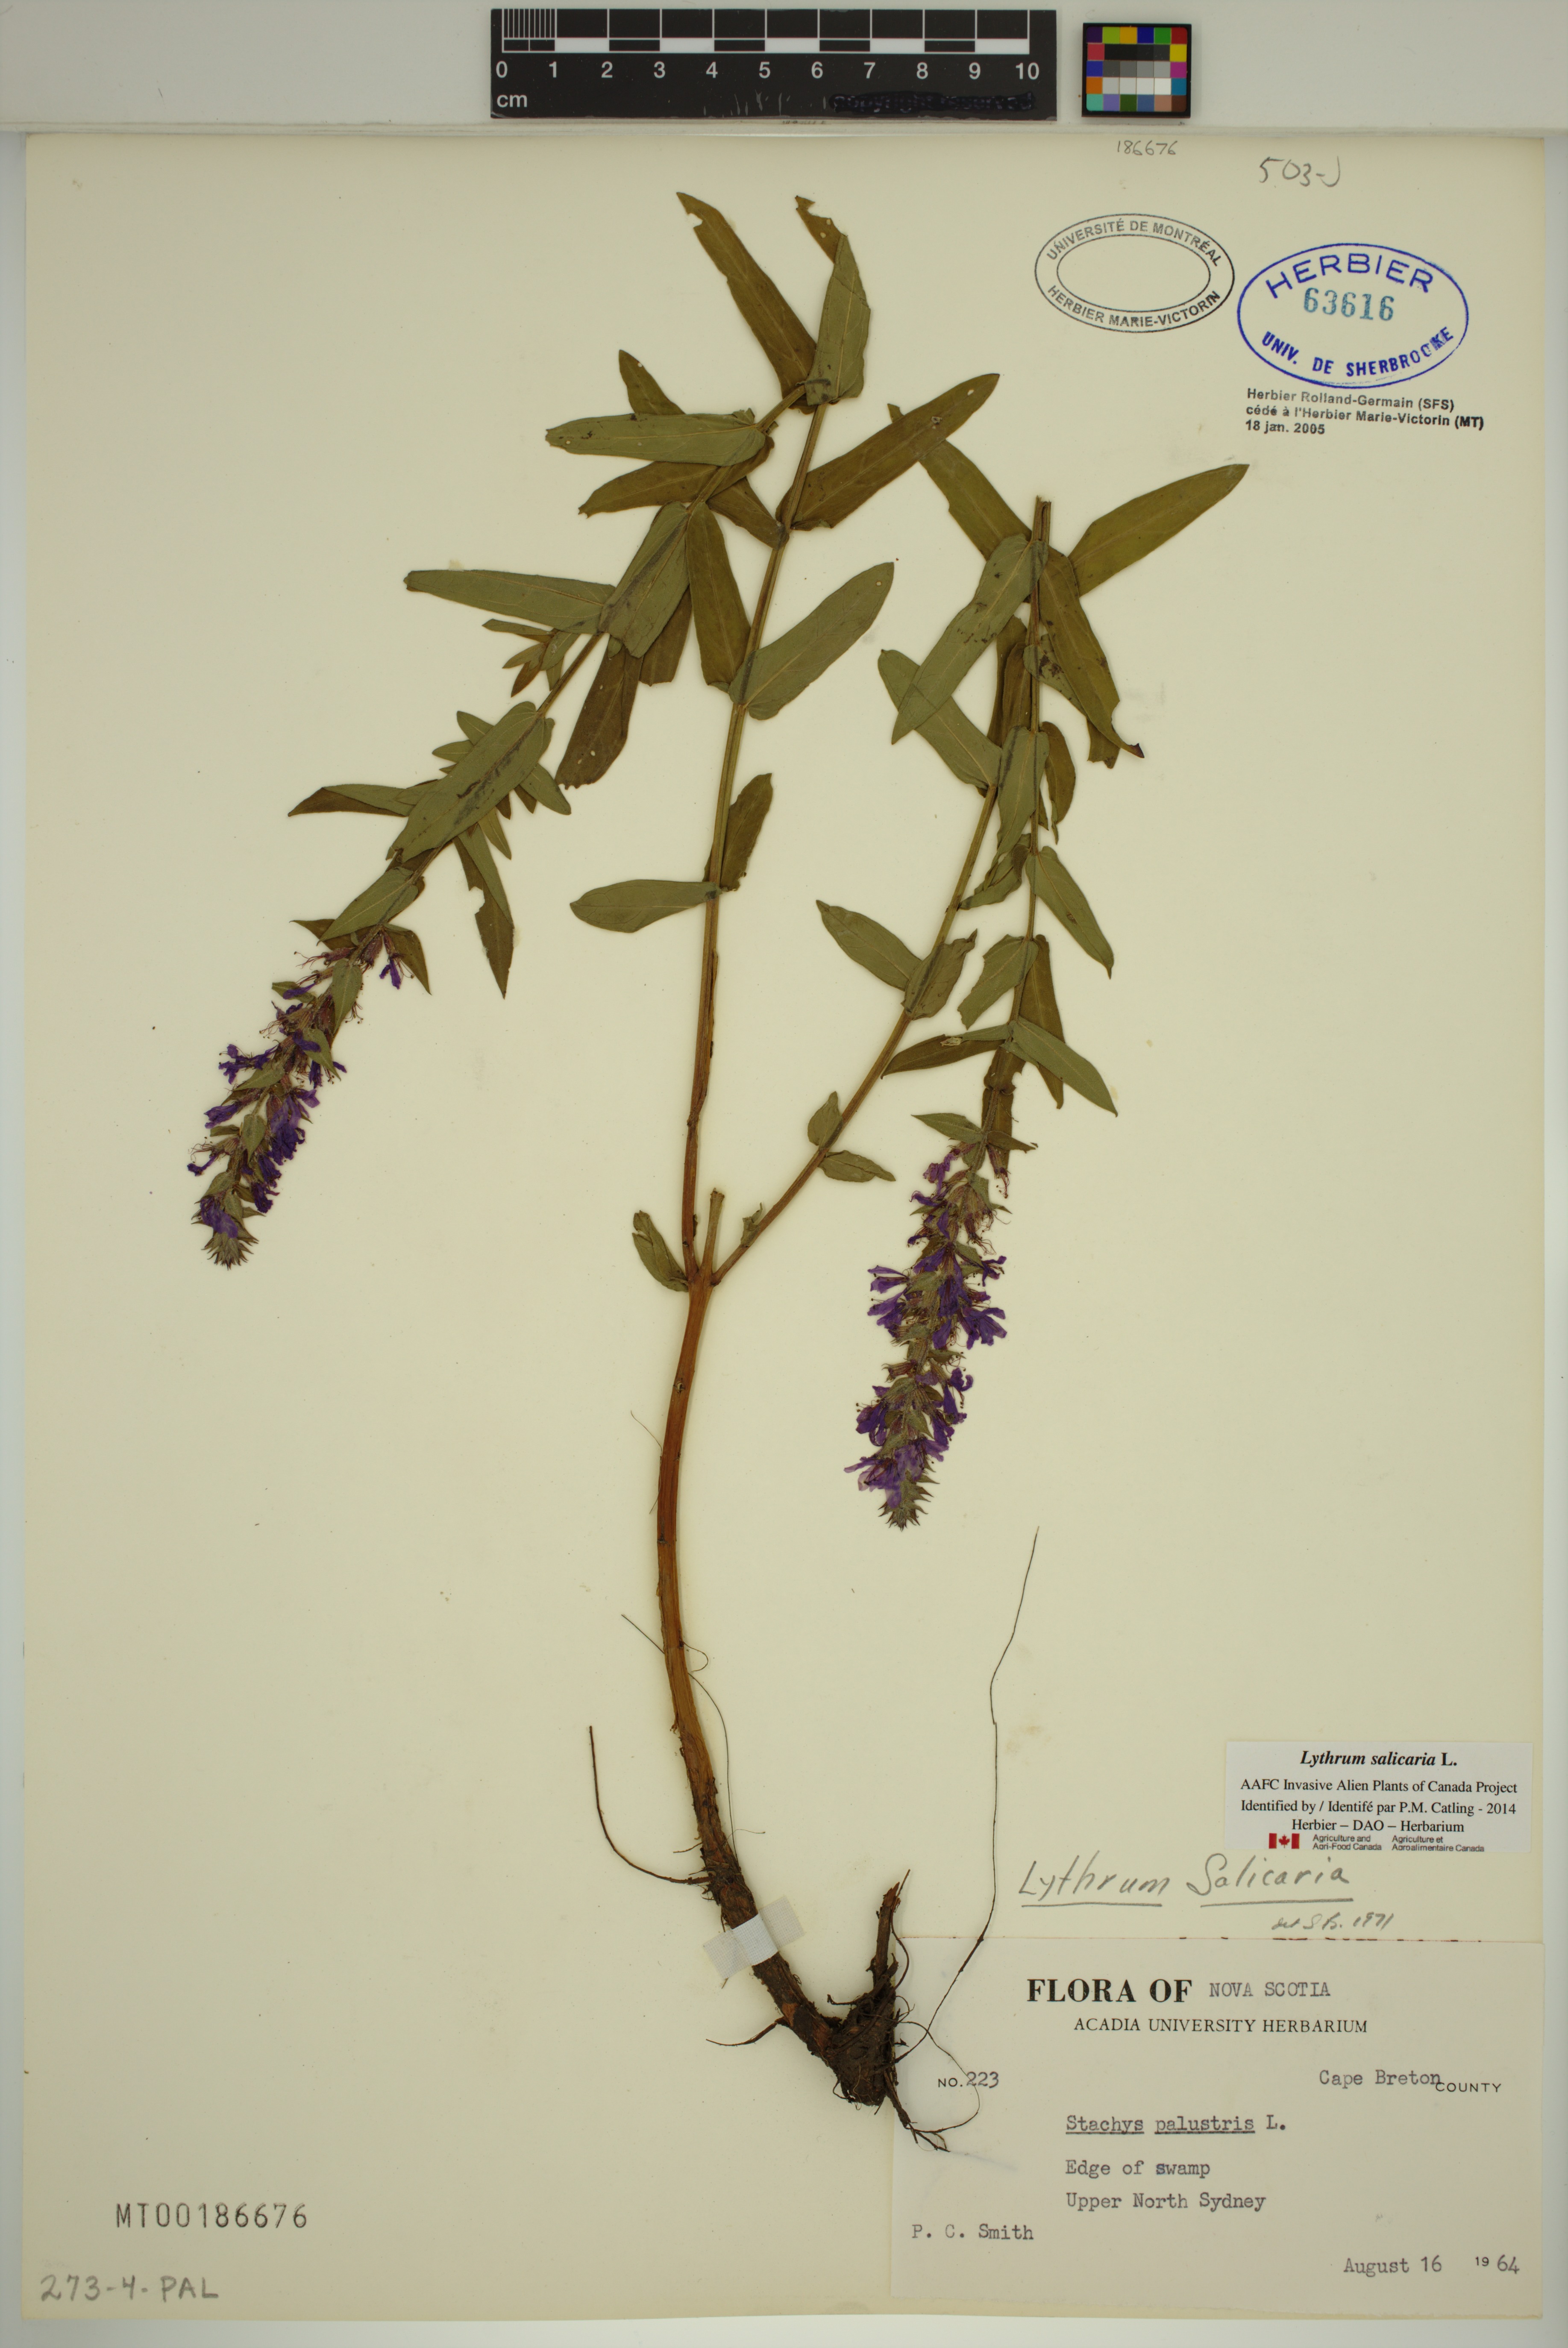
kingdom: Plantae
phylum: Tracheophyta
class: Magnoliopsida
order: Myrtales
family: Lythraceae
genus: Lythrum
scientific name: Lythrum salicaria
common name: Purple loosestrife
